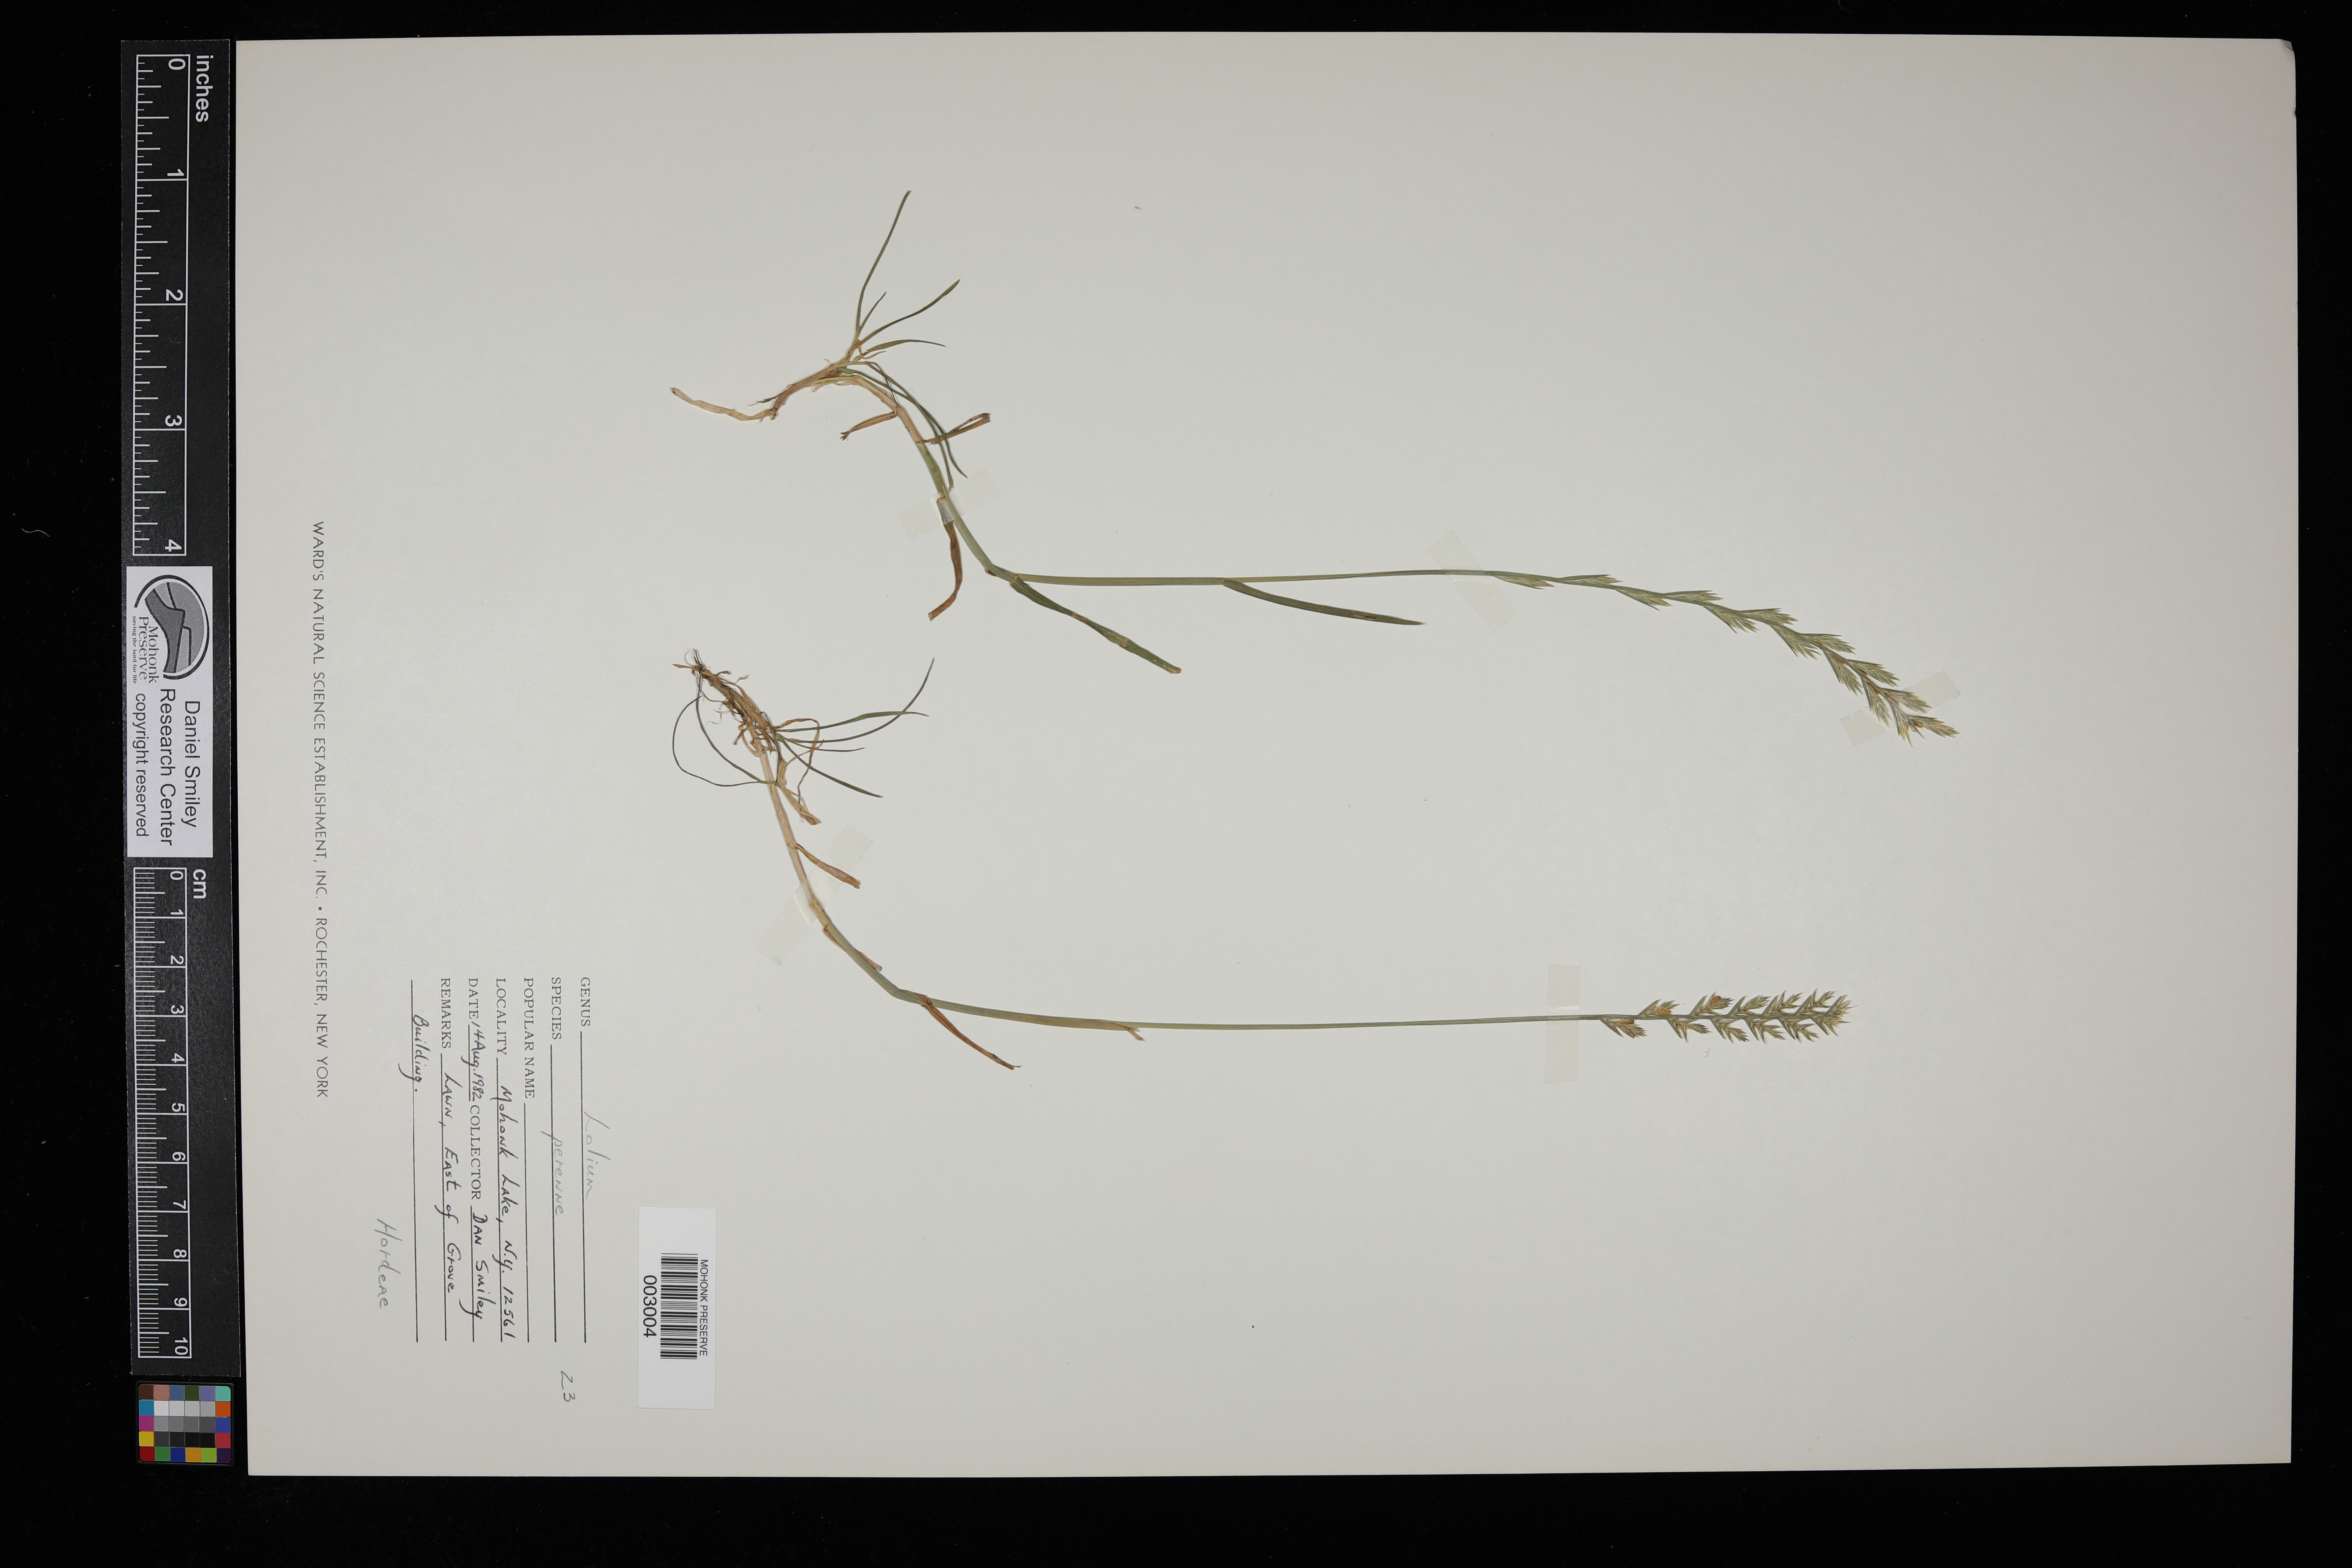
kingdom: Plantae
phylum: Tracheophyta
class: Liliopsida
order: Poales
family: Poaceae
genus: Lolium
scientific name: Lolium perenne
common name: Perennial ryegrass
